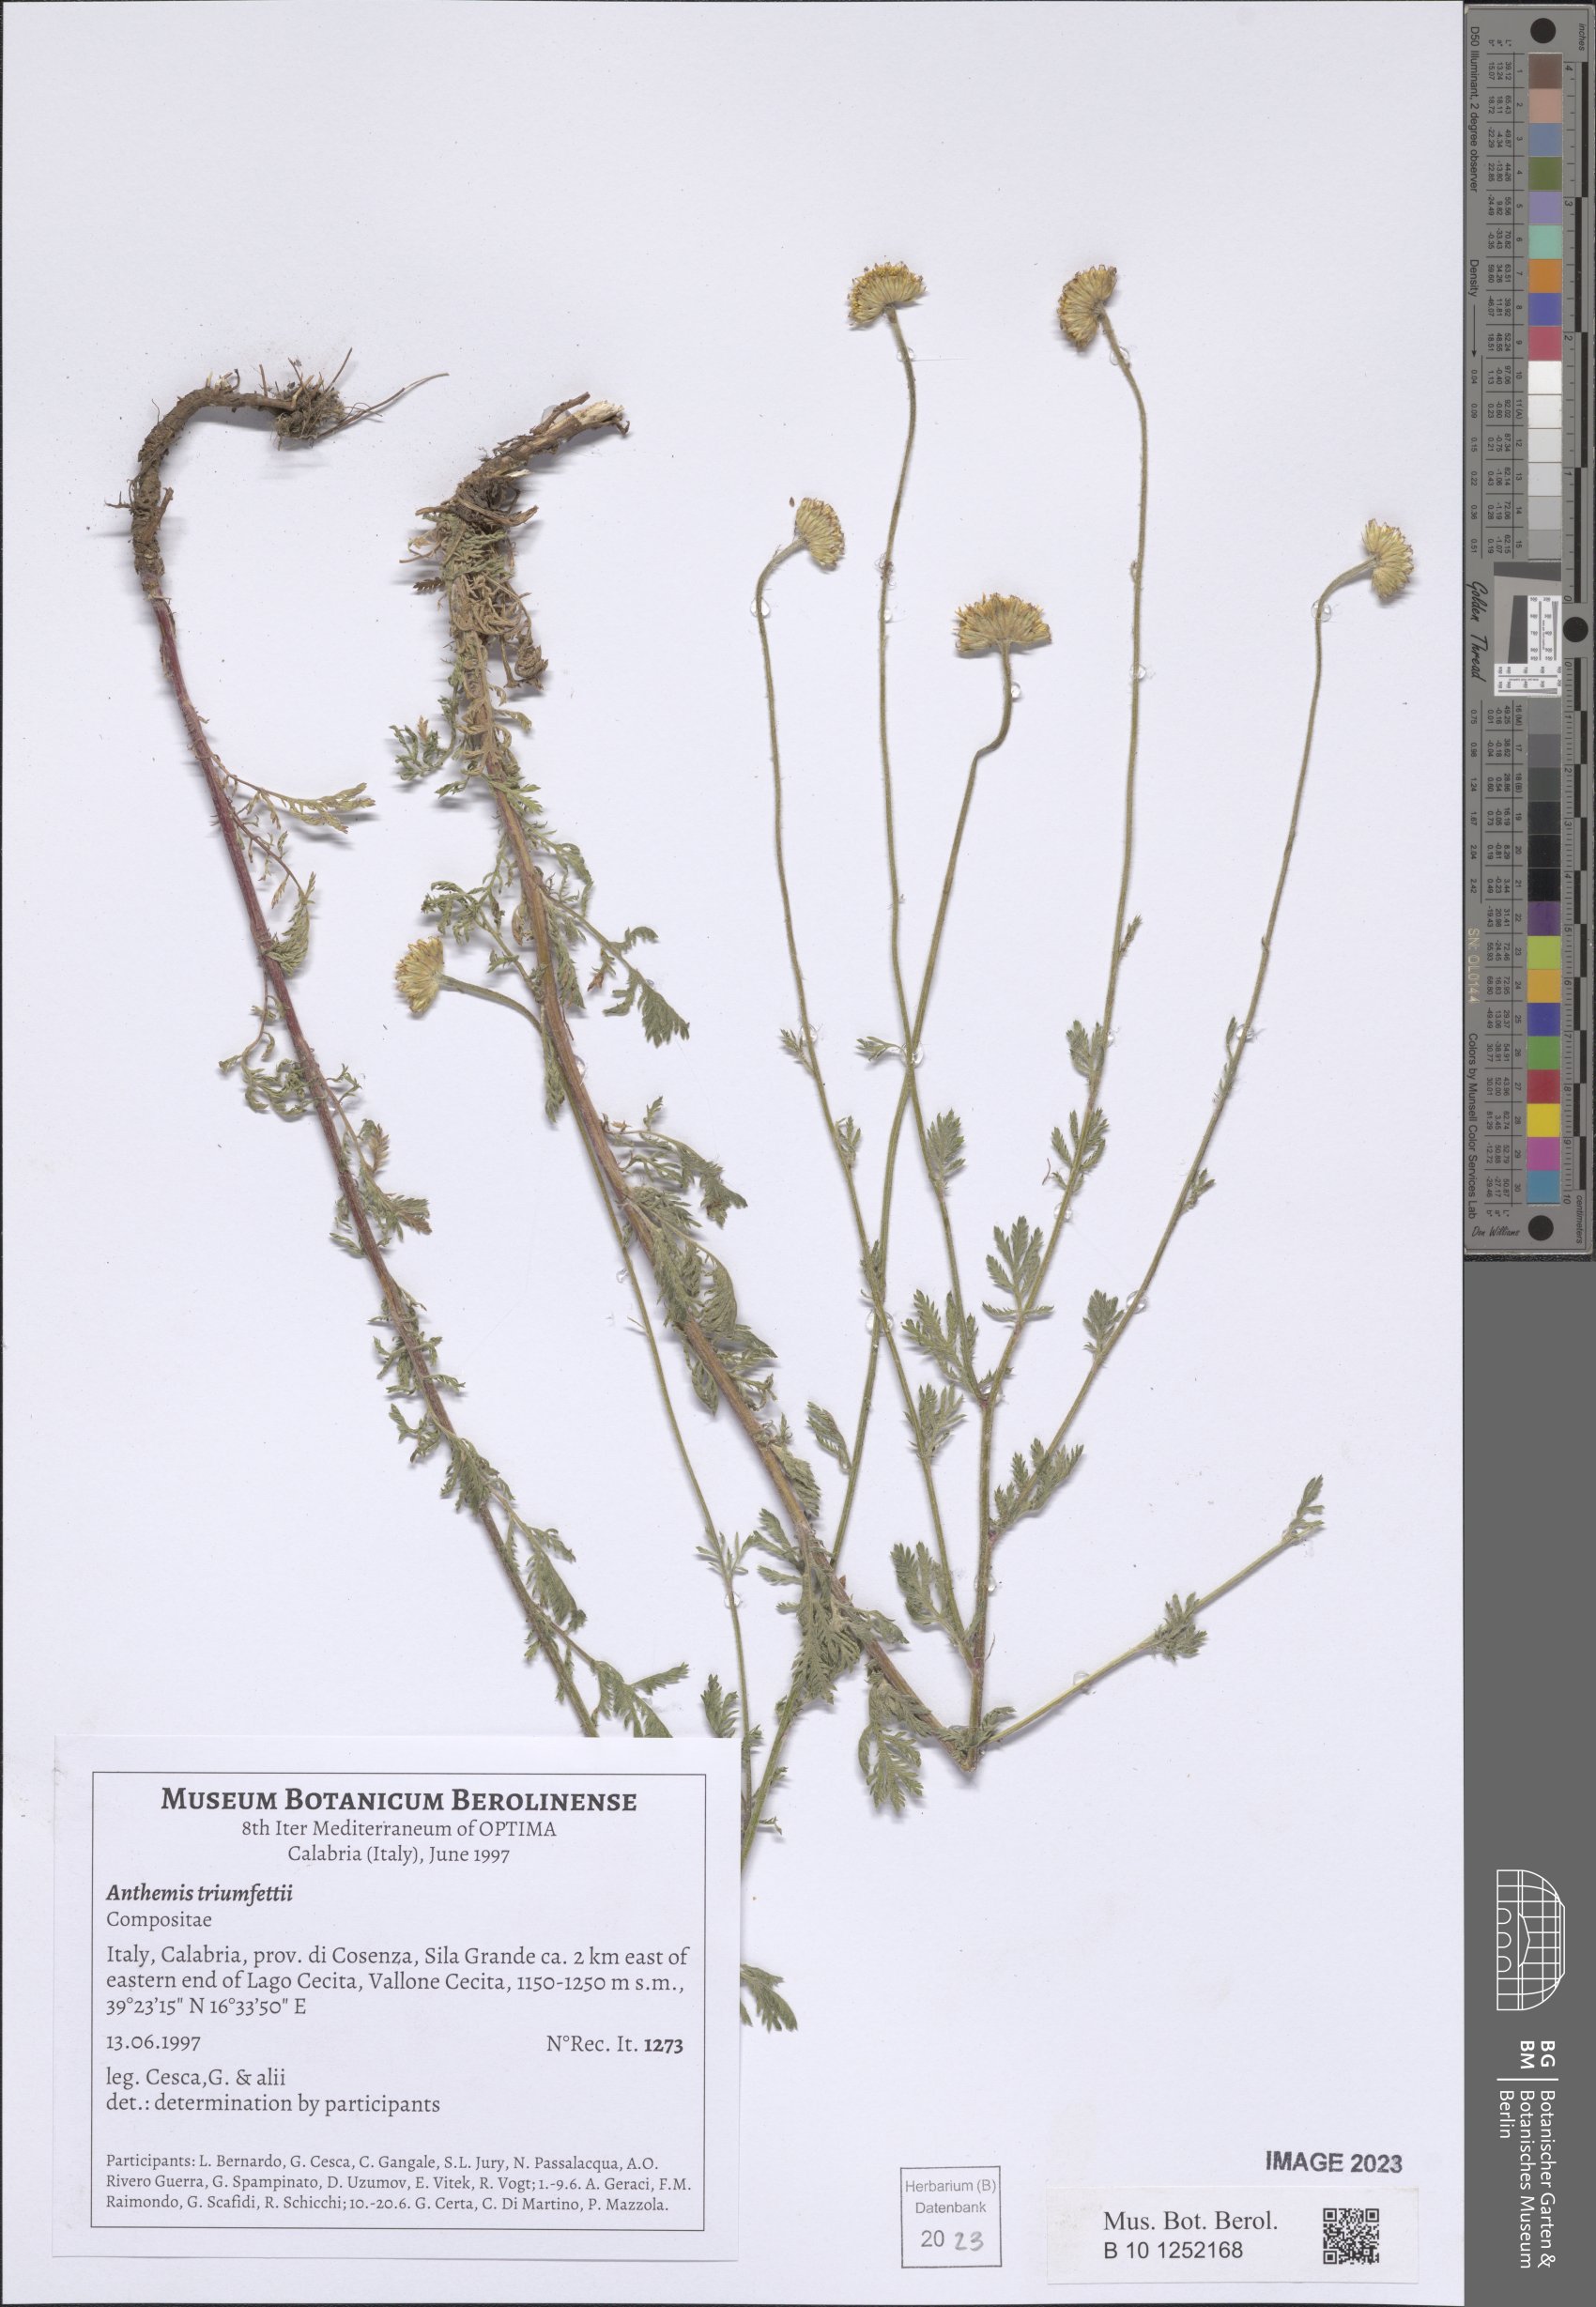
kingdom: Plantae
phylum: Tracheophyta
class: Magnoliopsida
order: Asterales
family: Asteraceae
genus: Cota
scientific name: Cota triumfetti
